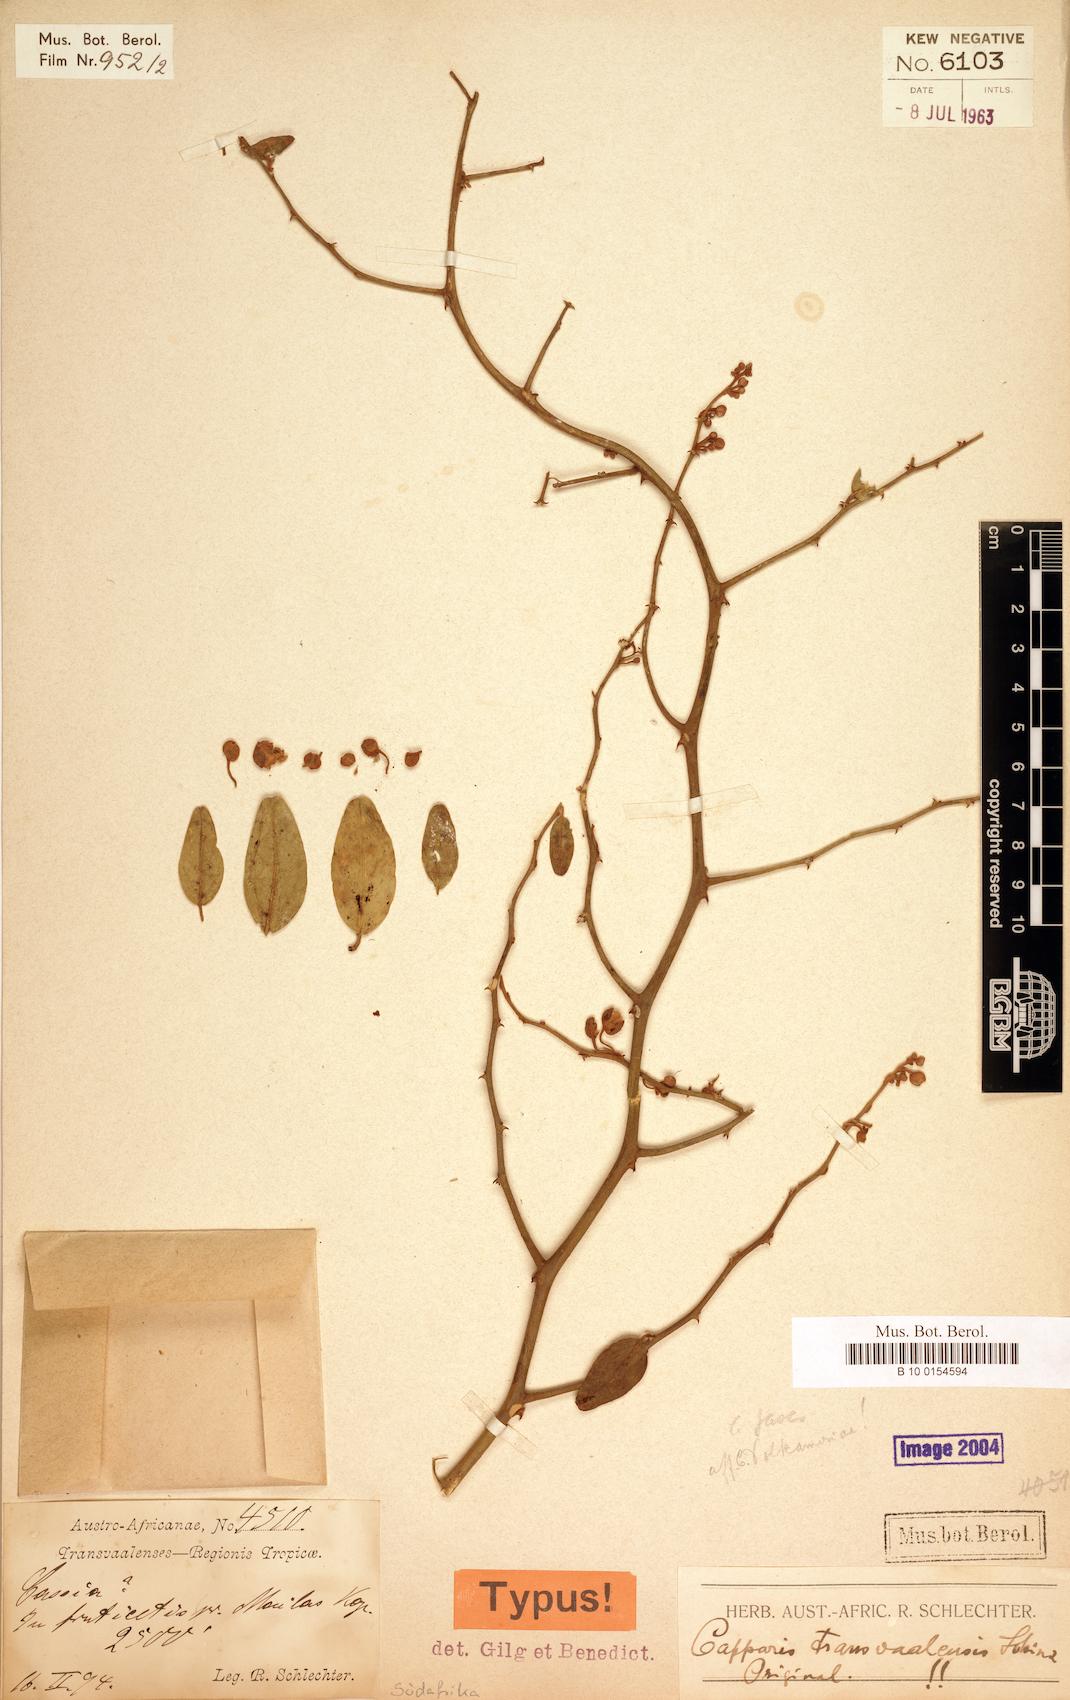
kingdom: Plantae
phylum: Tracheophyta
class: Magnoliopsida
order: Brassicales
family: Capparaceae
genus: Capparis
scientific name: Capparis fascicularis
